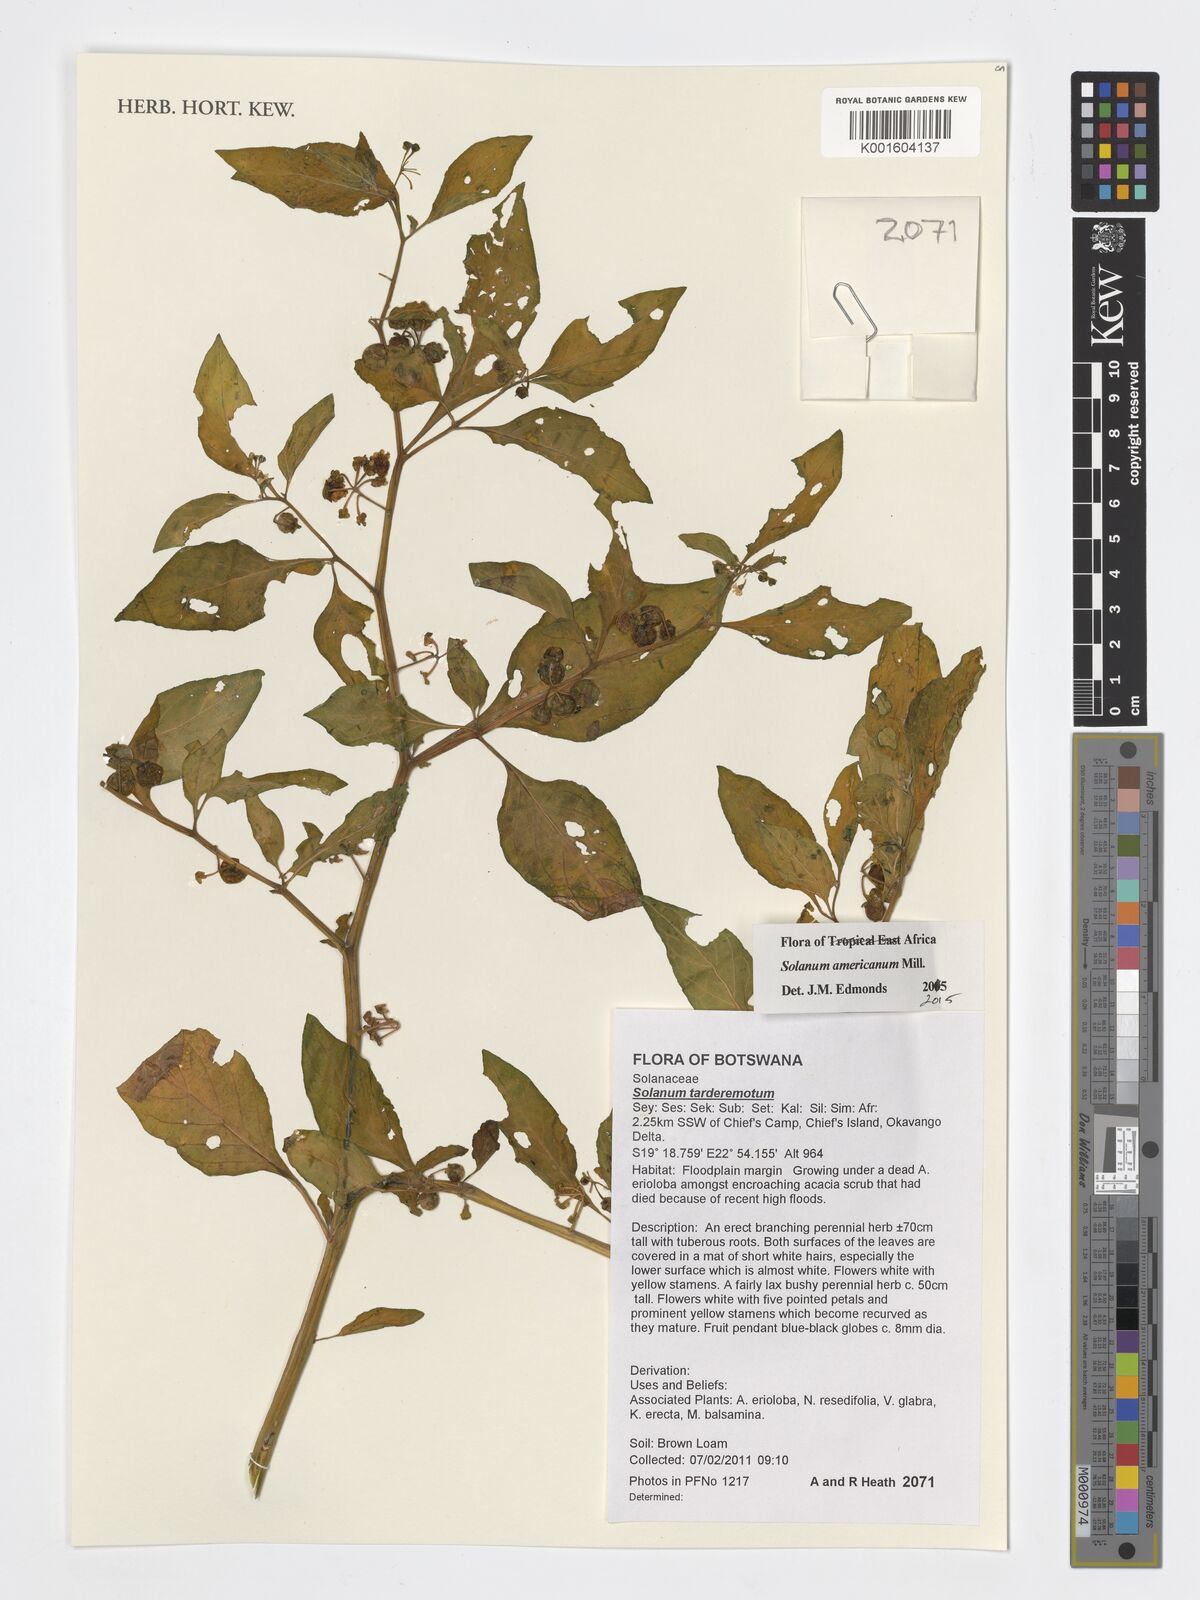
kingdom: Plantae
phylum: Tracheophyta
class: Magnoliopsida
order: Solanales
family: Solanaceae
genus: Solanum
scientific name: Solanum americanum
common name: American black nightshade
